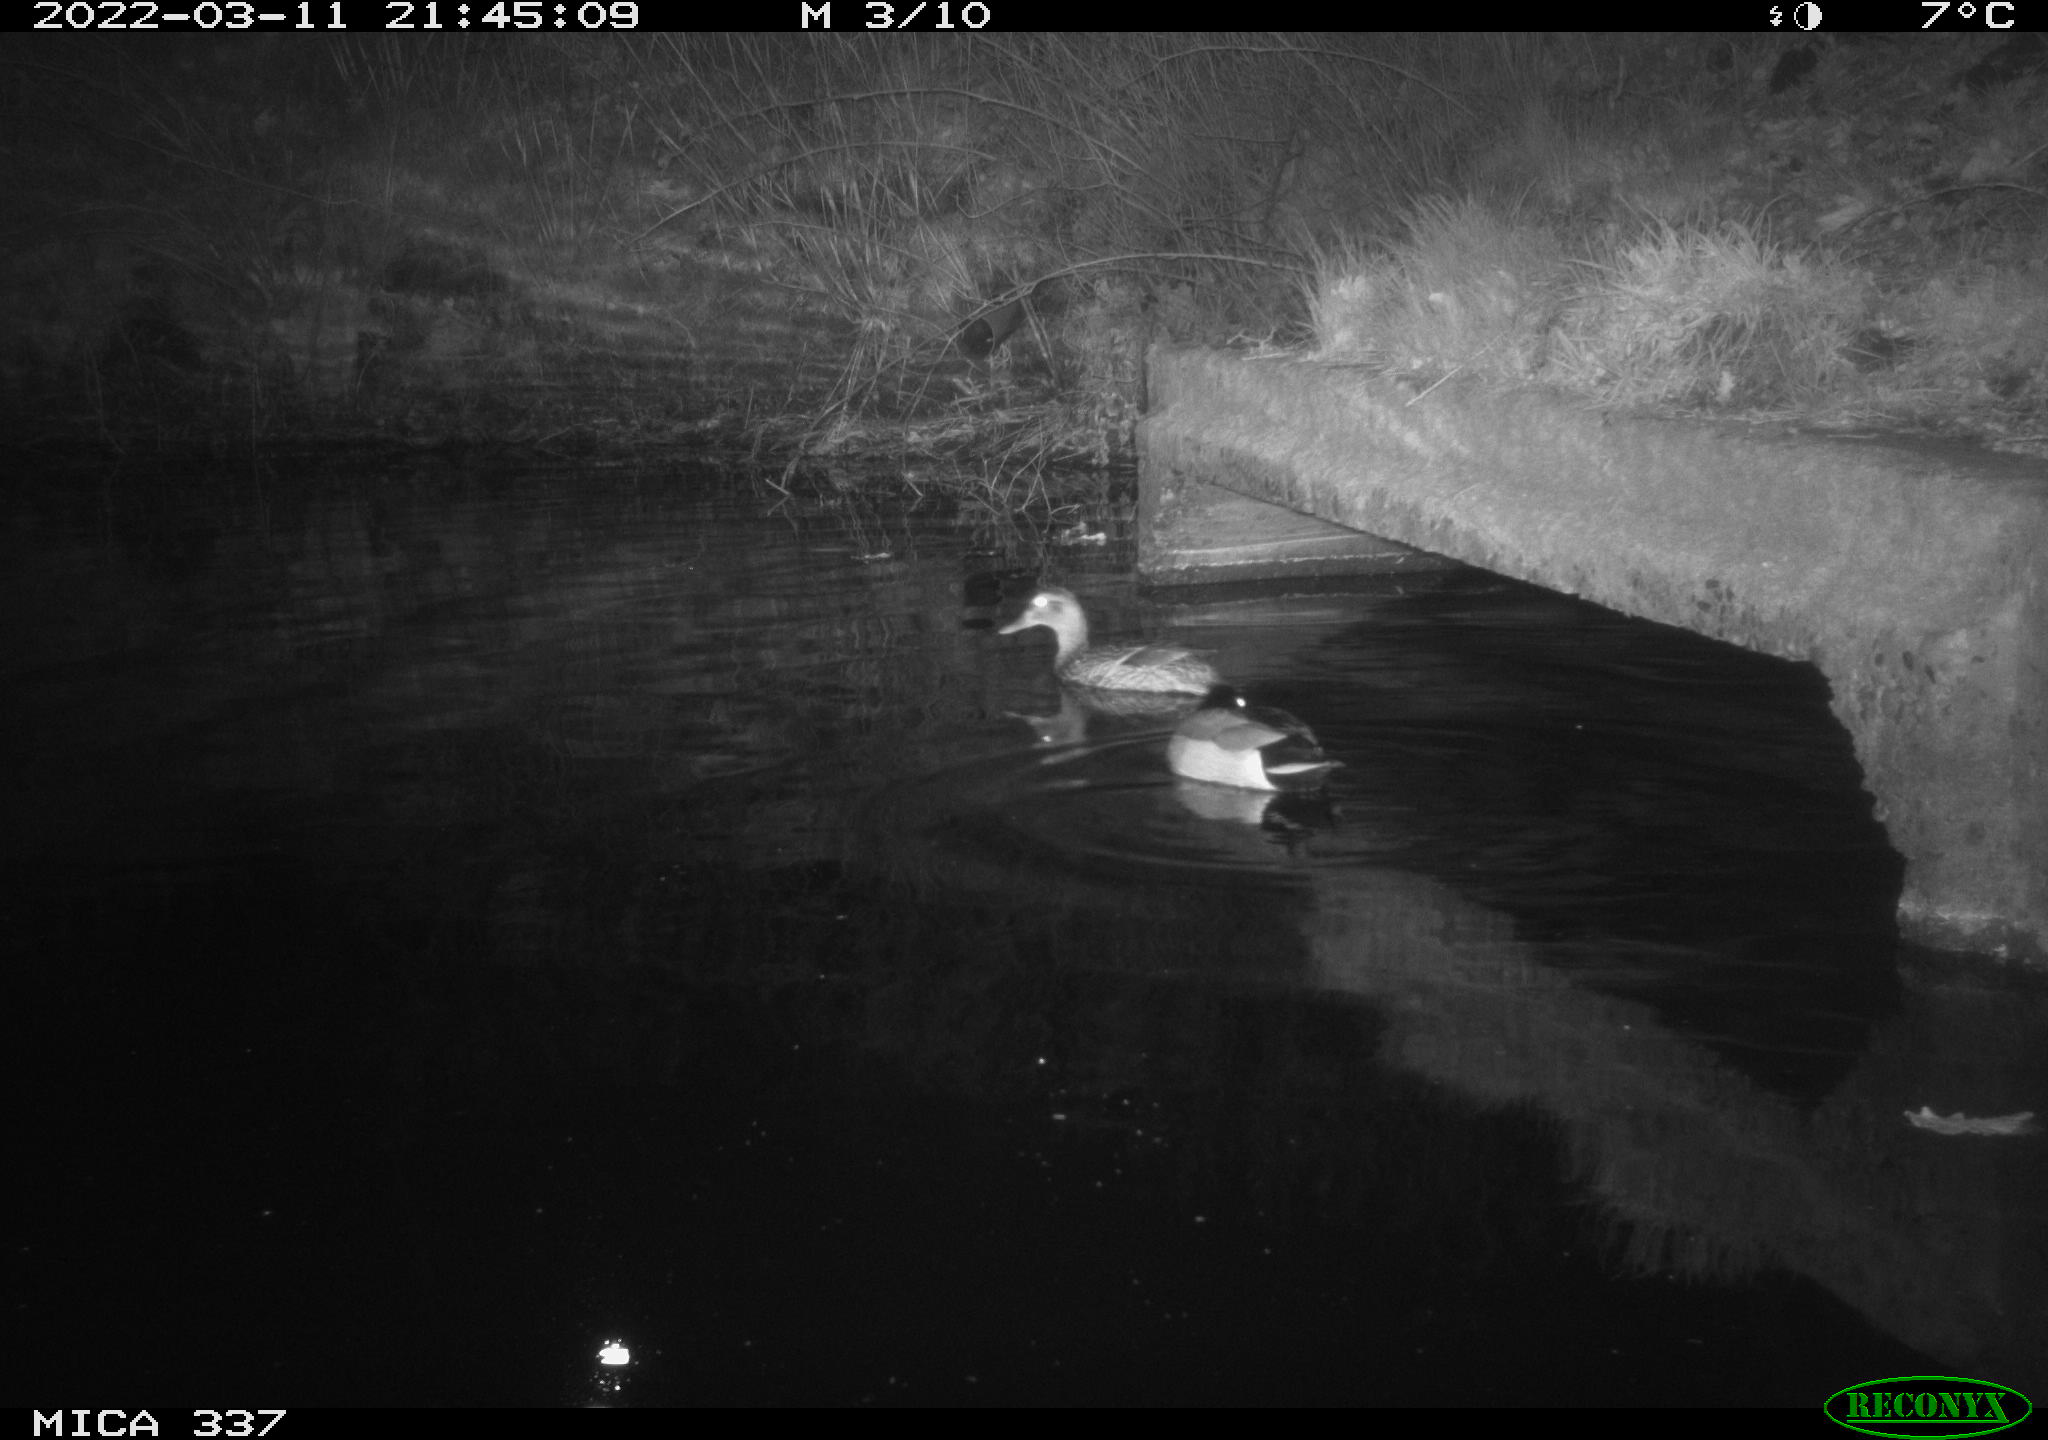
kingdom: Animalia
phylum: Chordata
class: Aves
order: Anseriformes
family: Anatidae
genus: Anas
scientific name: Anas platyrhynchos
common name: Mallard
